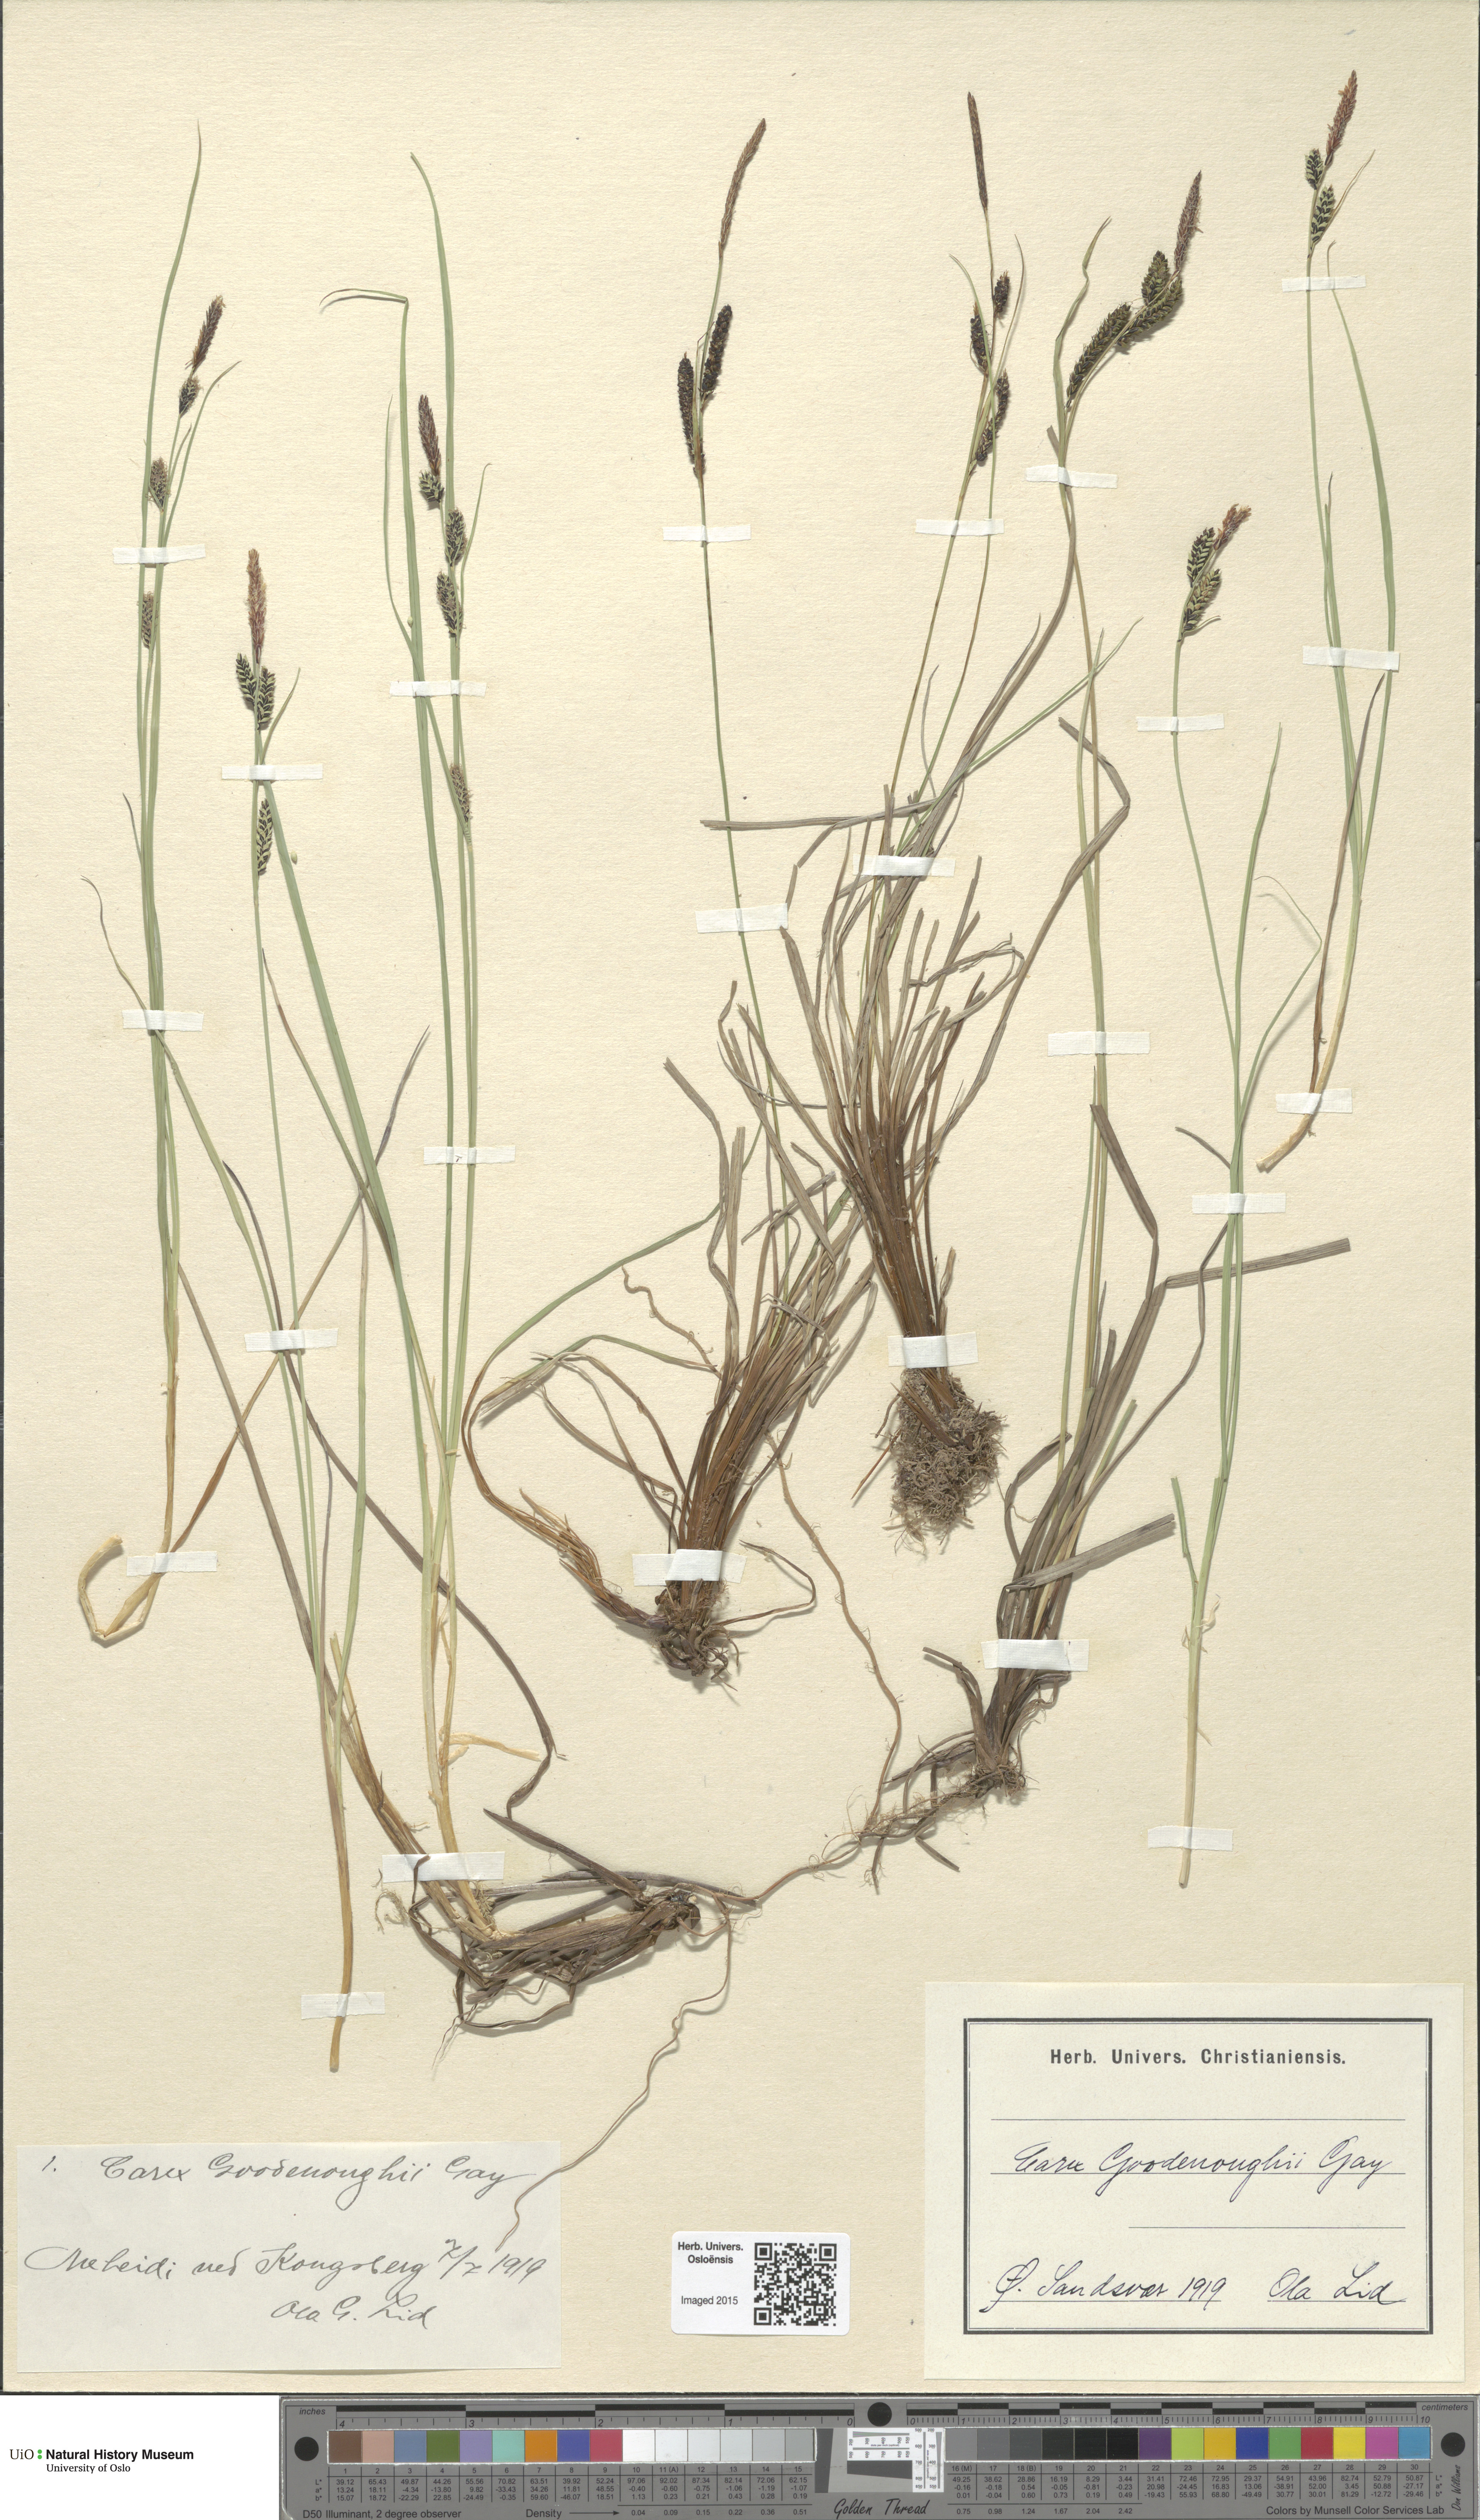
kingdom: Plantae
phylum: Tracheophyta
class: Liliopsida
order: Poales
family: Cyperaceae
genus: Carex
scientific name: Carex nigra
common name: Common sedge
